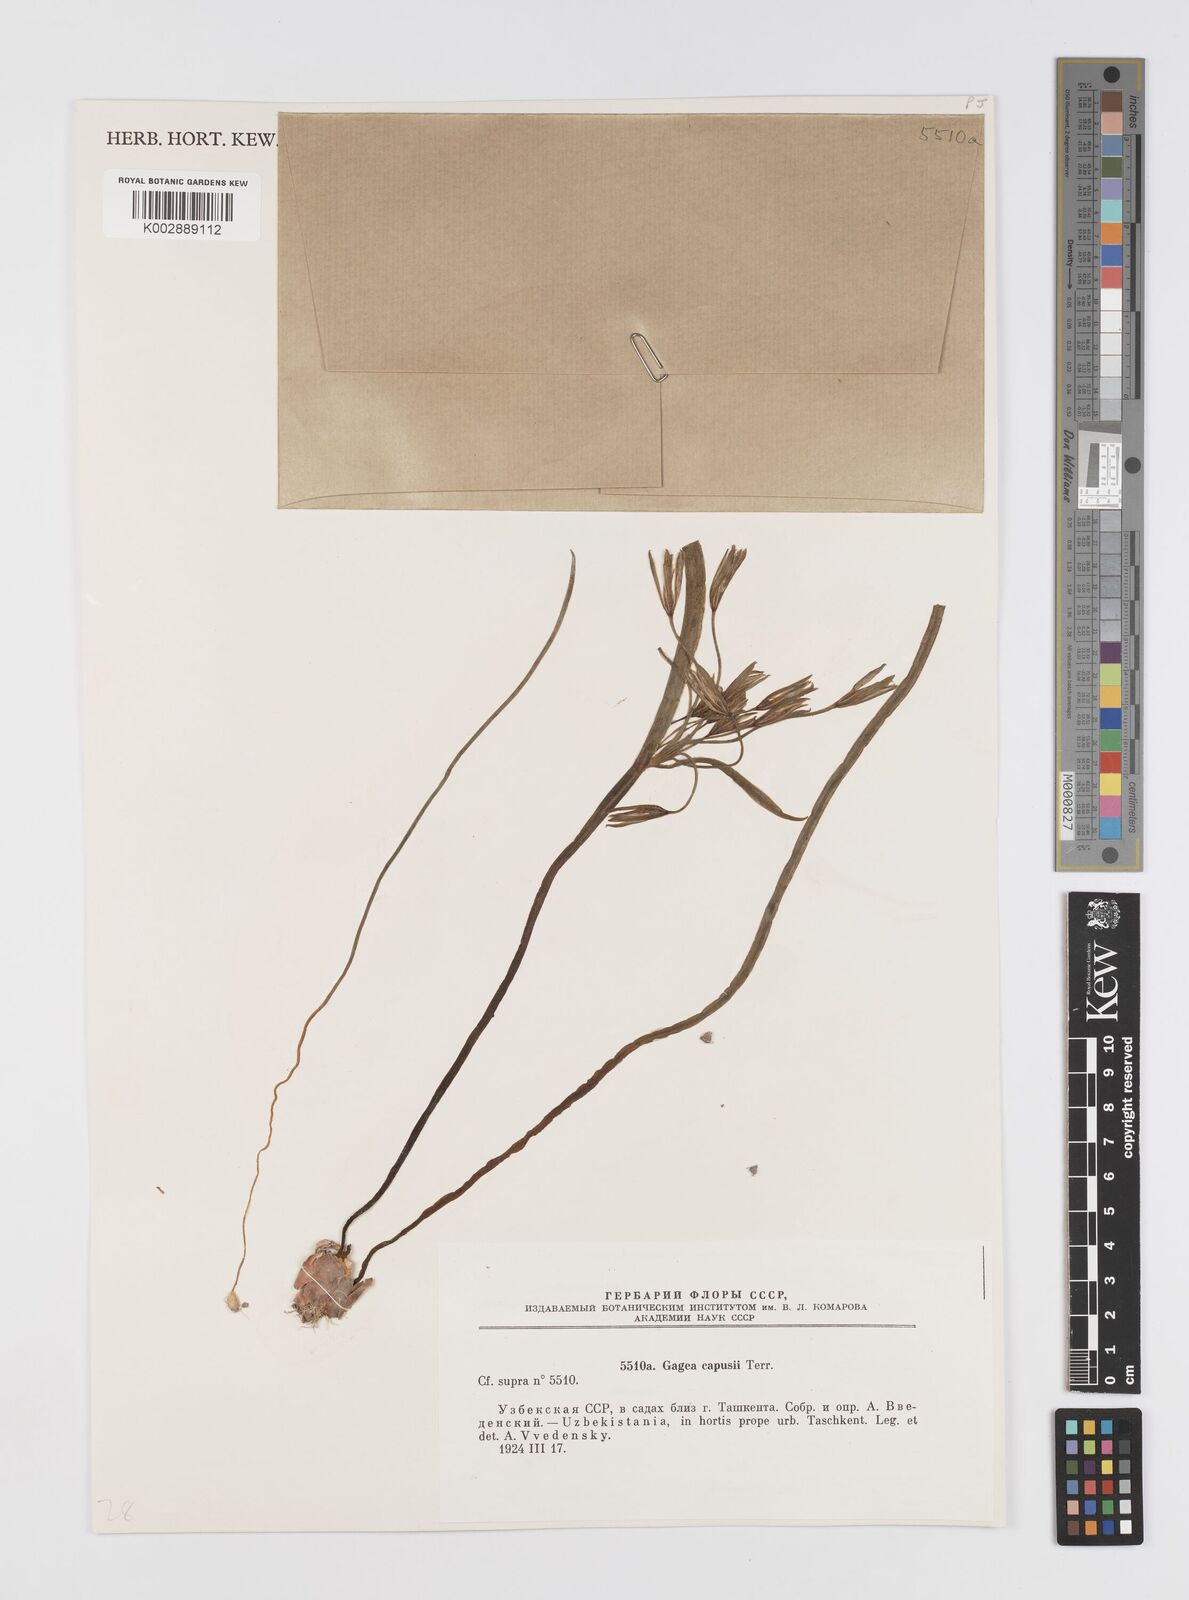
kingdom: Plantae
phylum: Tracheophyta
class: Liliopsida
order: Liliales
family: Liliaceae
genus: Gagea
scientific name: Gagea capusii
